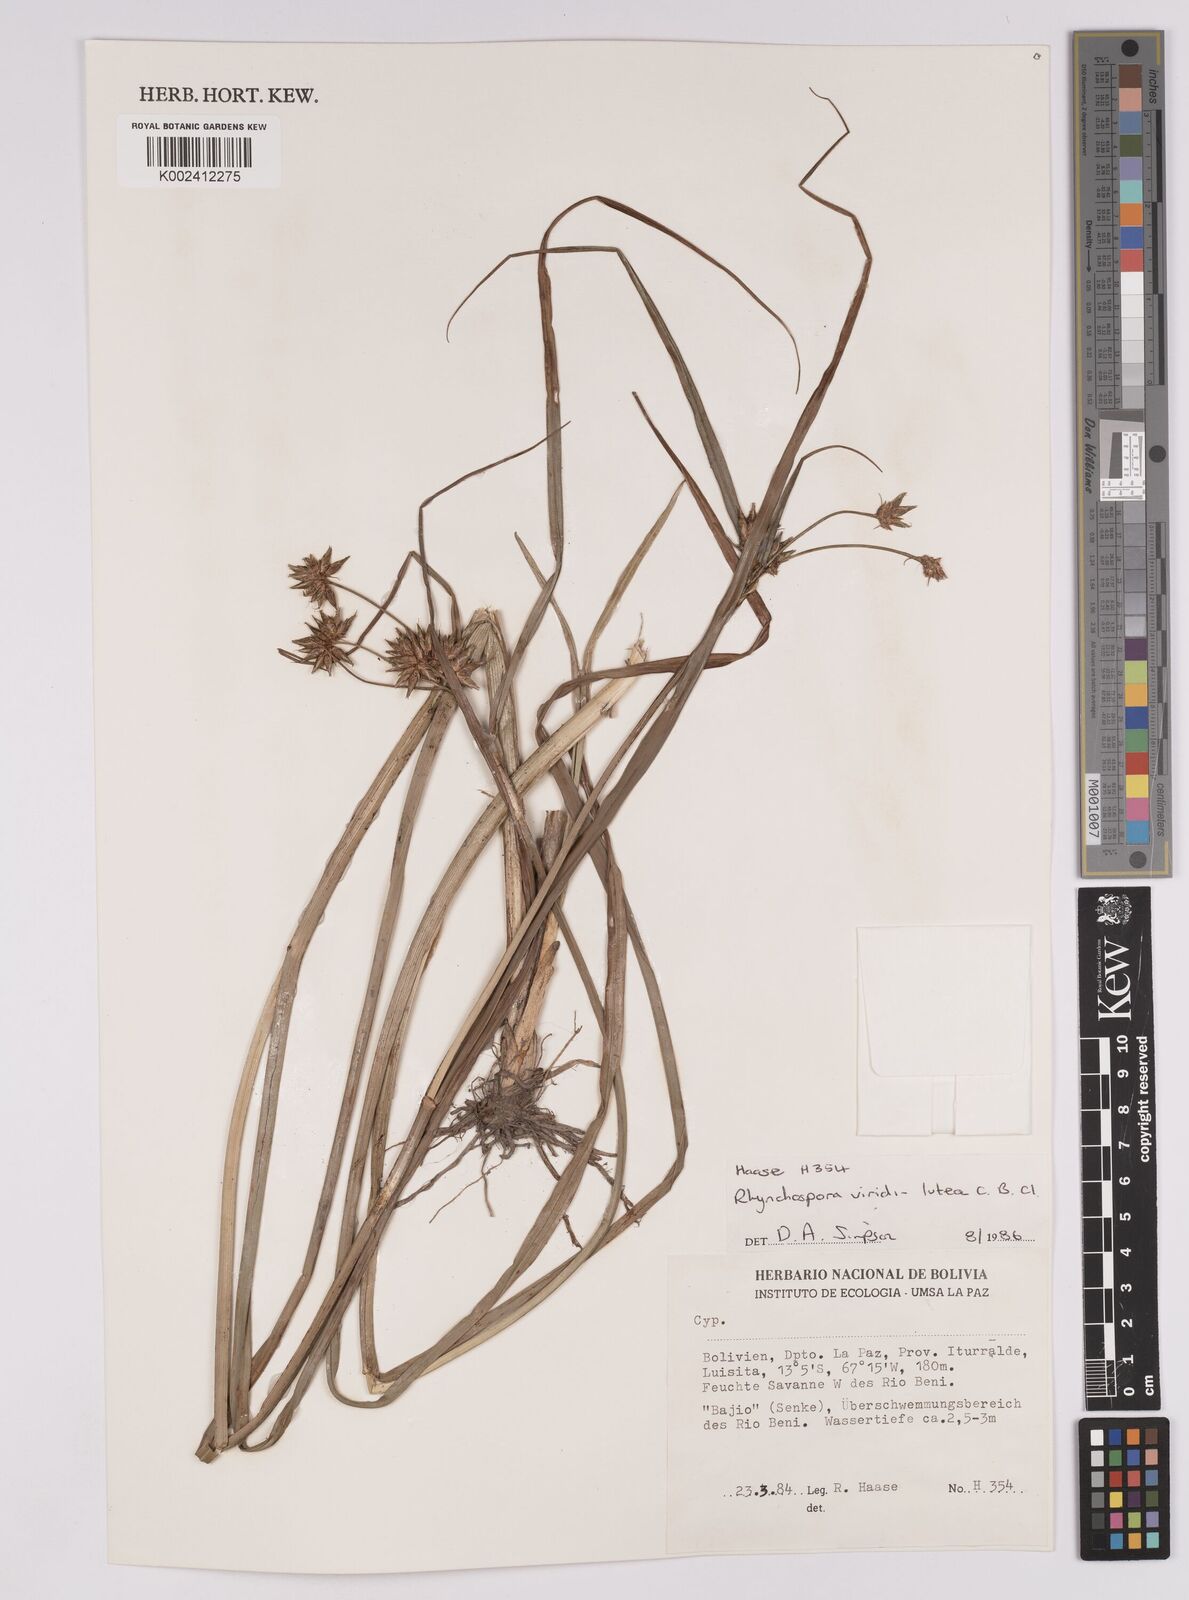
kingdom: Plantae
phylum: Tracheophyta
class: Liliopsida
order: Poales
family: Cyperaceae
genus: Rhynchospora
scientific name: Rhynchospora hassleri
